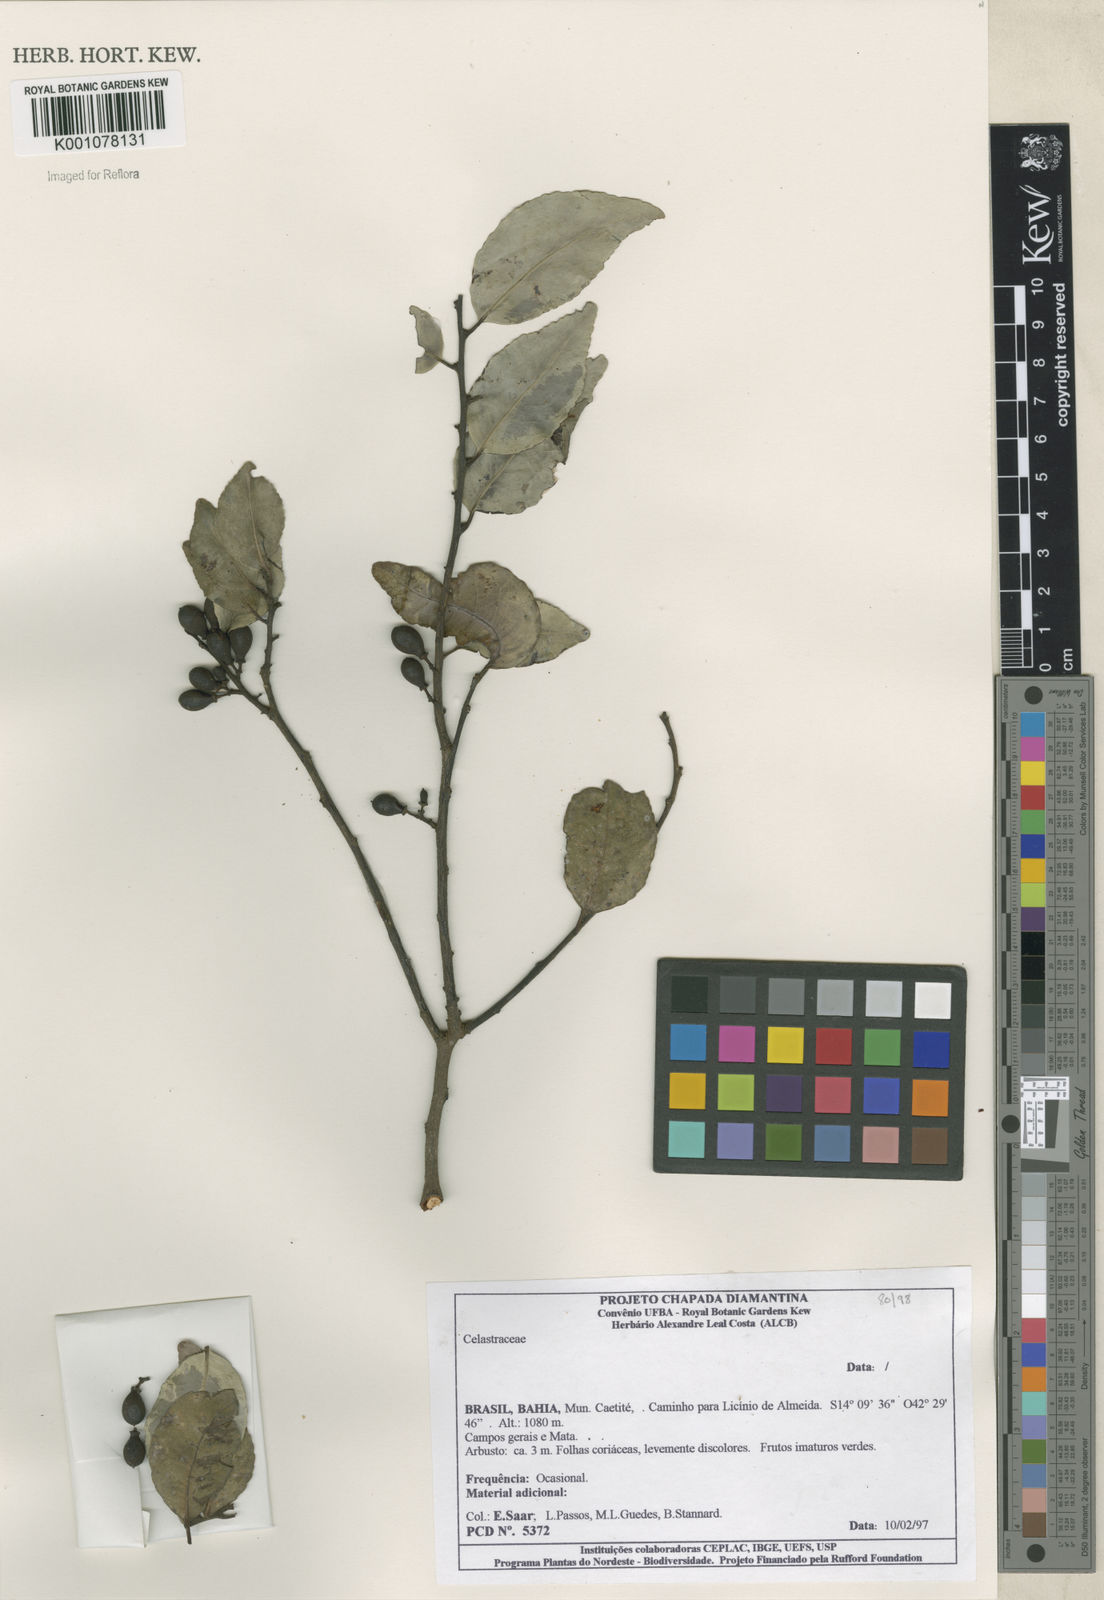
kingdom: Plantae
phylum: Tracheophyta
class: Magnoliopsida
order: Celastrales
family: Celastraceae
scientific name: Celastraceae
